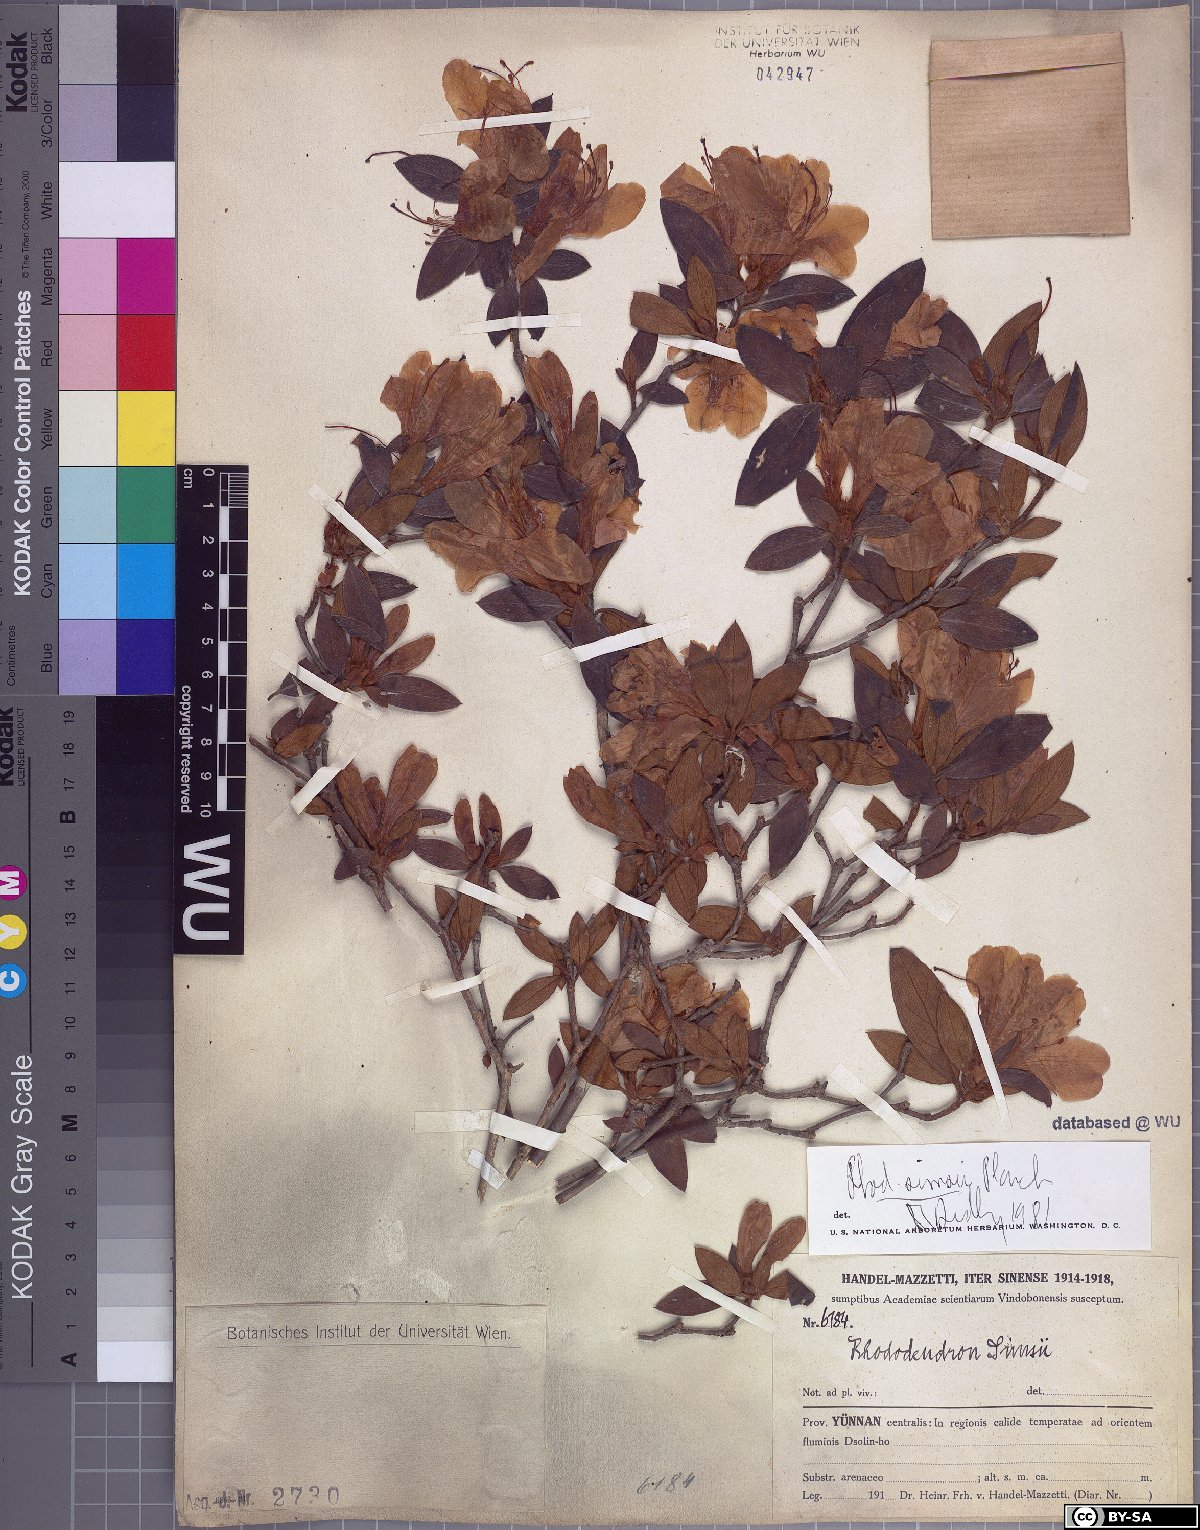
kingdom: Plantae
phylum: Tracheophyta
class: Magnoliopsida
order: Ericales
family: Ericaceae
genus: Rhododendron
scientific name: Rhododendron simsii
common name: Rhododendron
